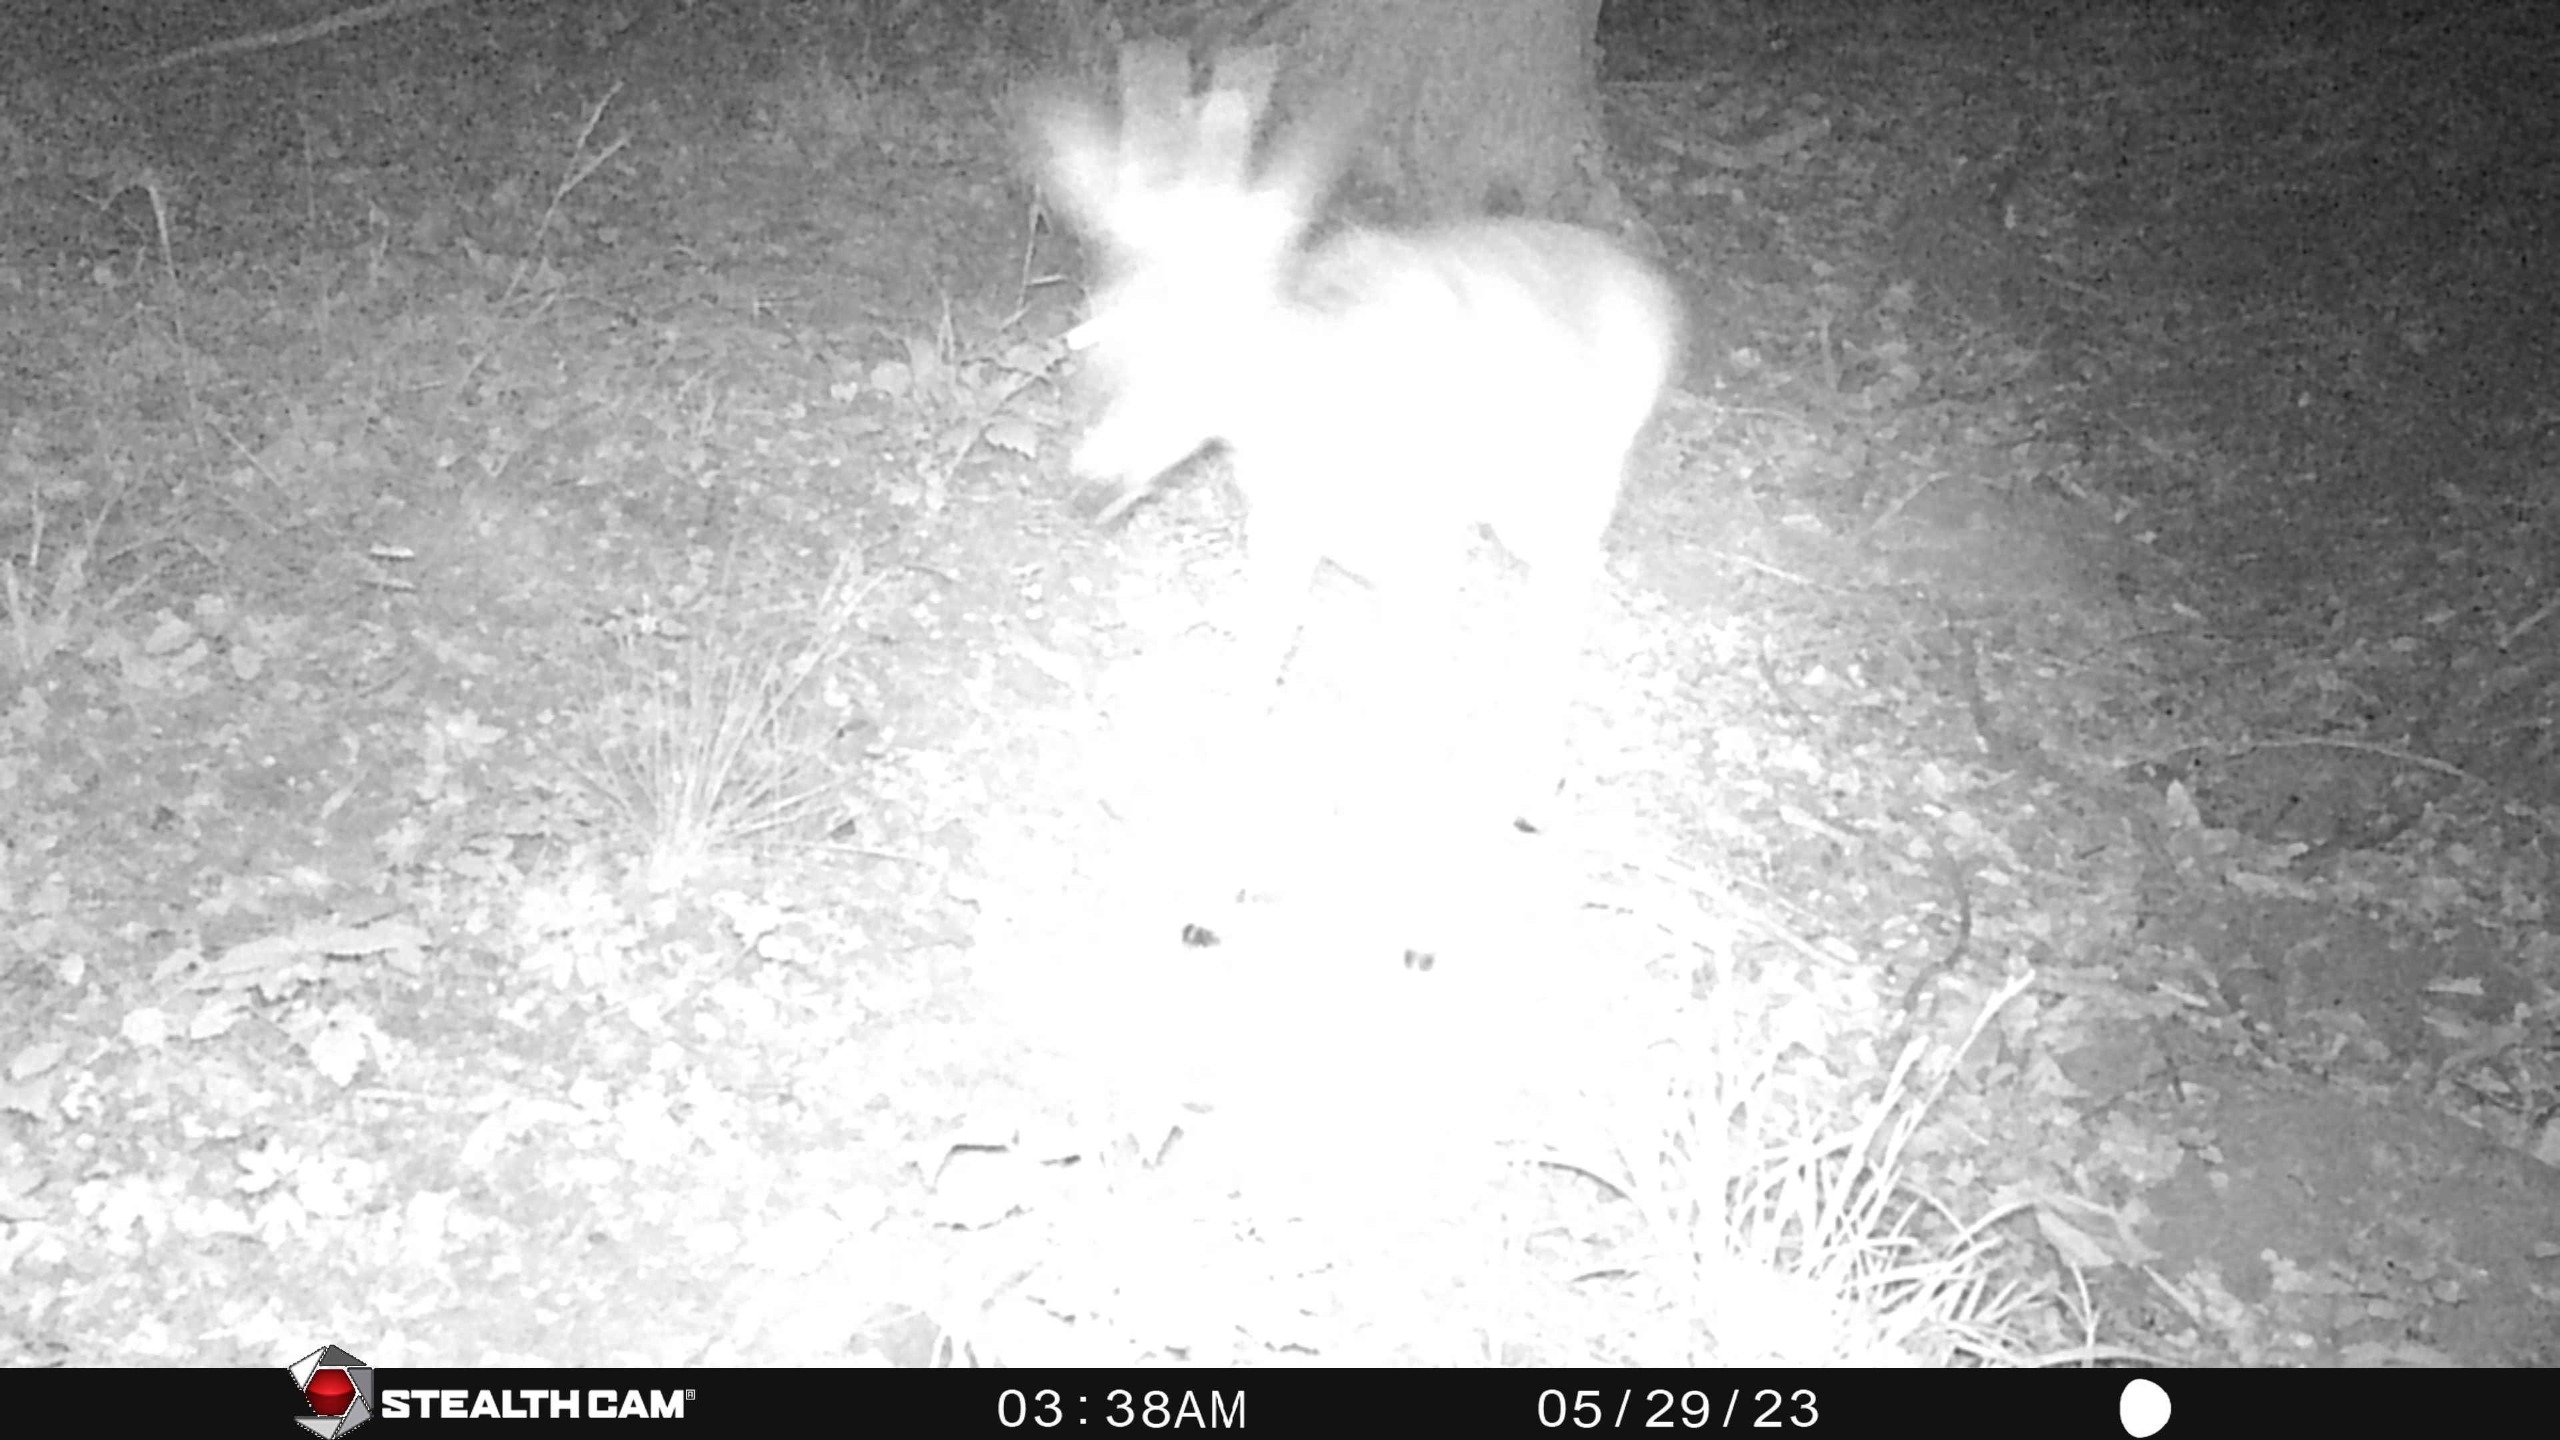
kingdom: Animalia
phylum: Chordata
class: Mammalia
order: Artiodactyla
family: Cervidae
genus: Capreolus
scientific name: Capreolus capreolus
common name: Rådyr
